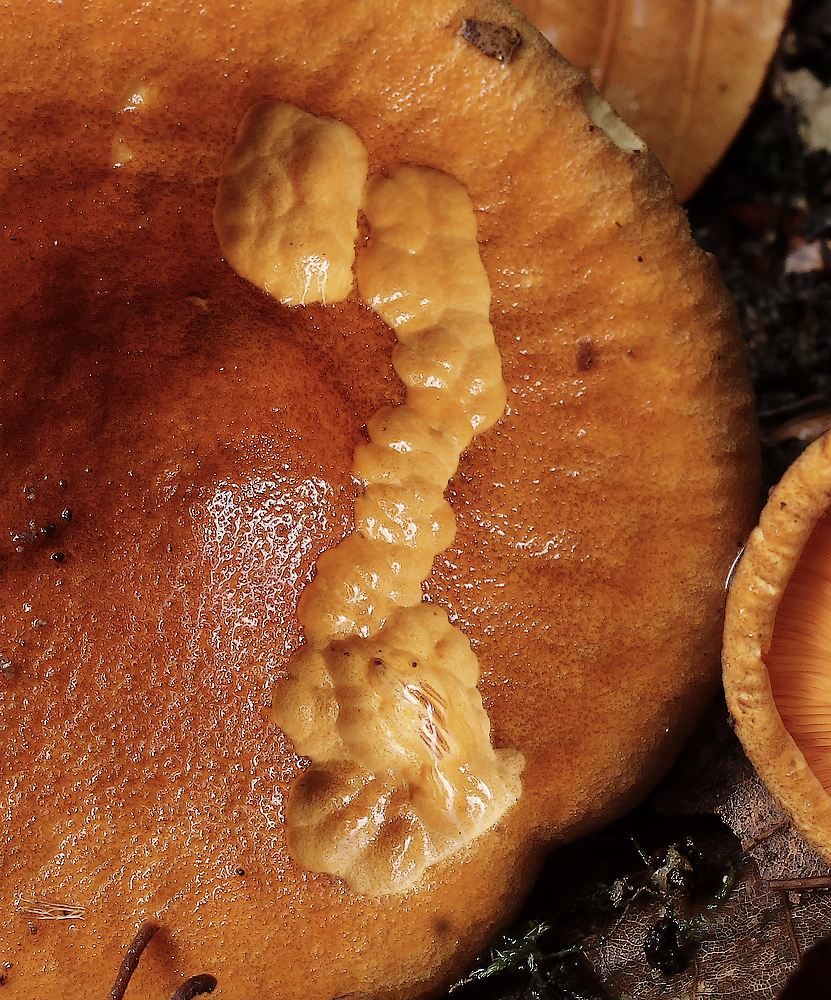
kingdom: Fungi
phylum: Basidiomycota
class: Agaricomycetes
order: Boletales
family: Hygrophoropsidaceae
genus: Hygrophoropsis
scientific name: Hygrophoropsis rufa
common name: brunfiltet orangekantarel
